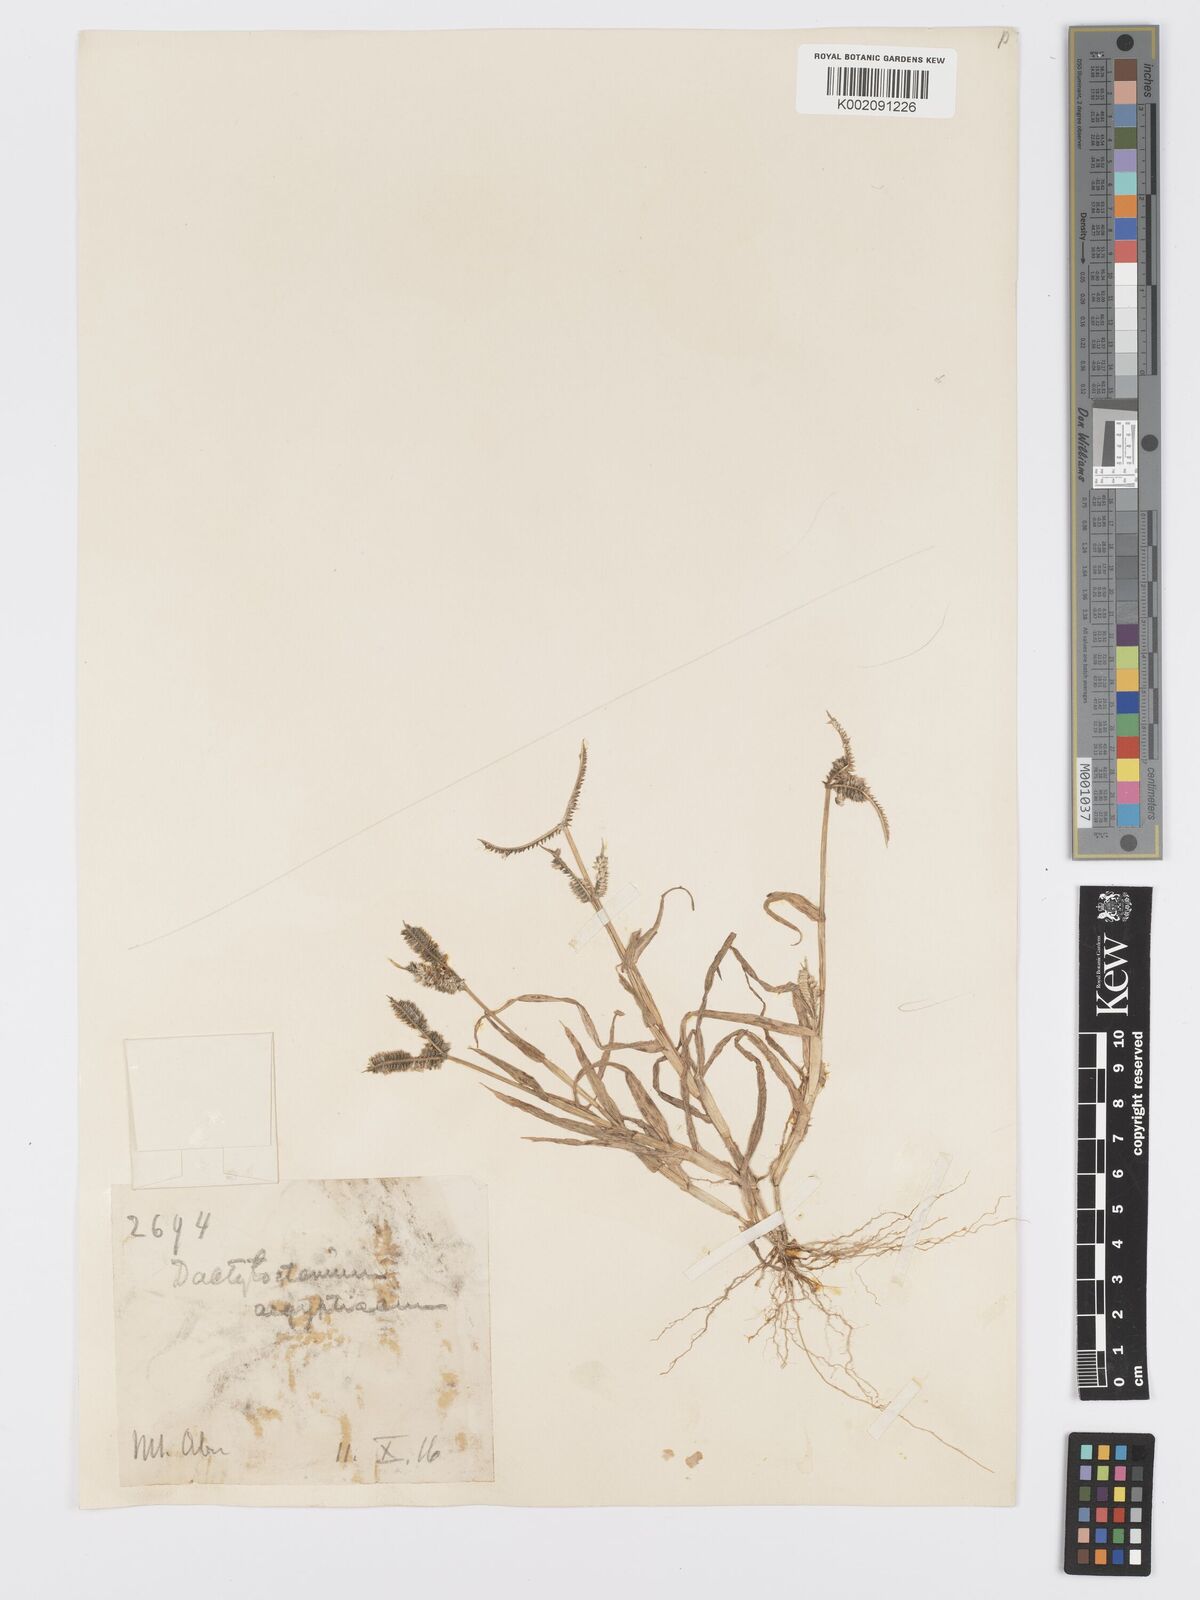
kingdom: Plantae
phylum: Tracheophyta
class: Liliopsida
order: Poales
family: Poaceae
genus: Dactyloctenium
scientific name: Dactyloctenium aegyptium
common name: Egyptian grass
